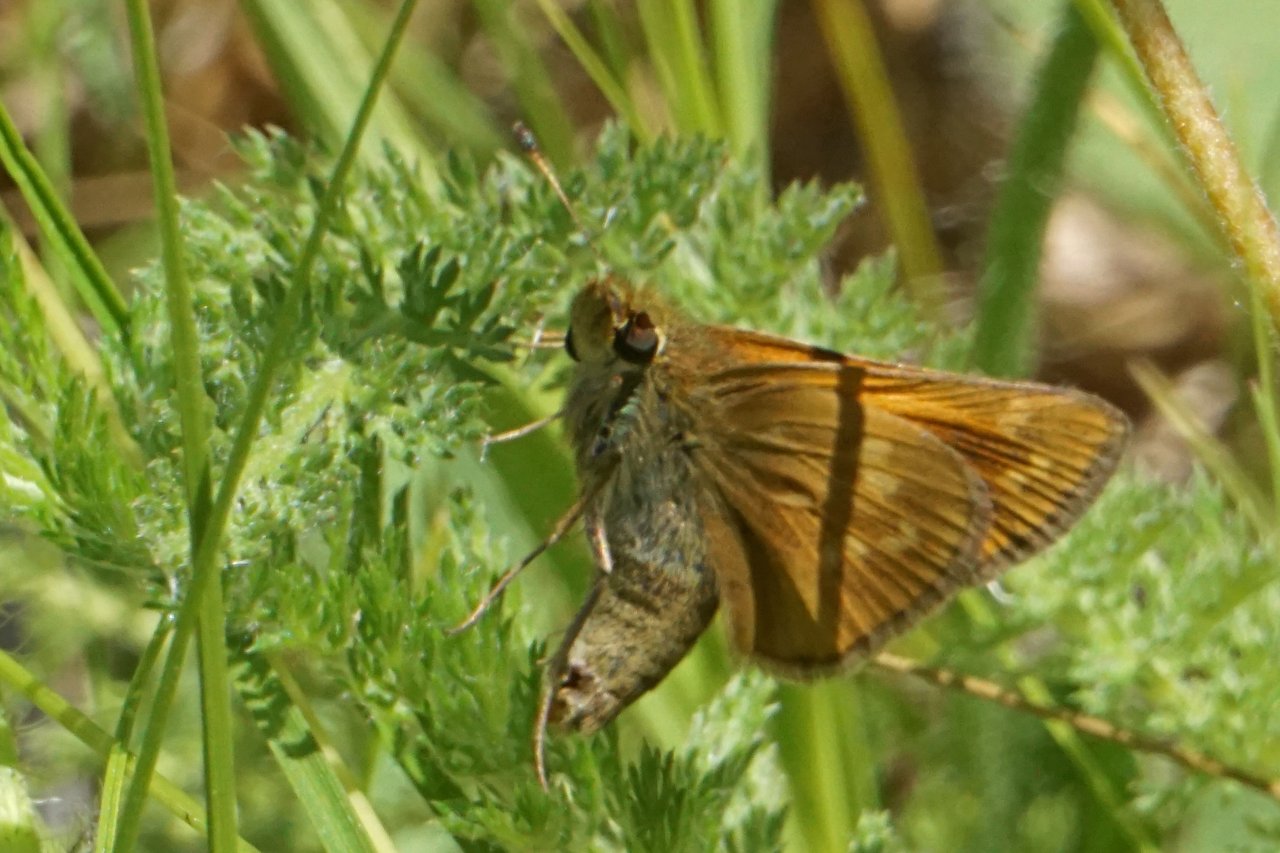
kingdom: Animalia
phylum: Arthropoda
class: Insecta
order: Lepidoptera
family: Hesperiidae
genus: Hesperia
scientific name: Hesperia sassacus
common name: Sassacus Skipper
